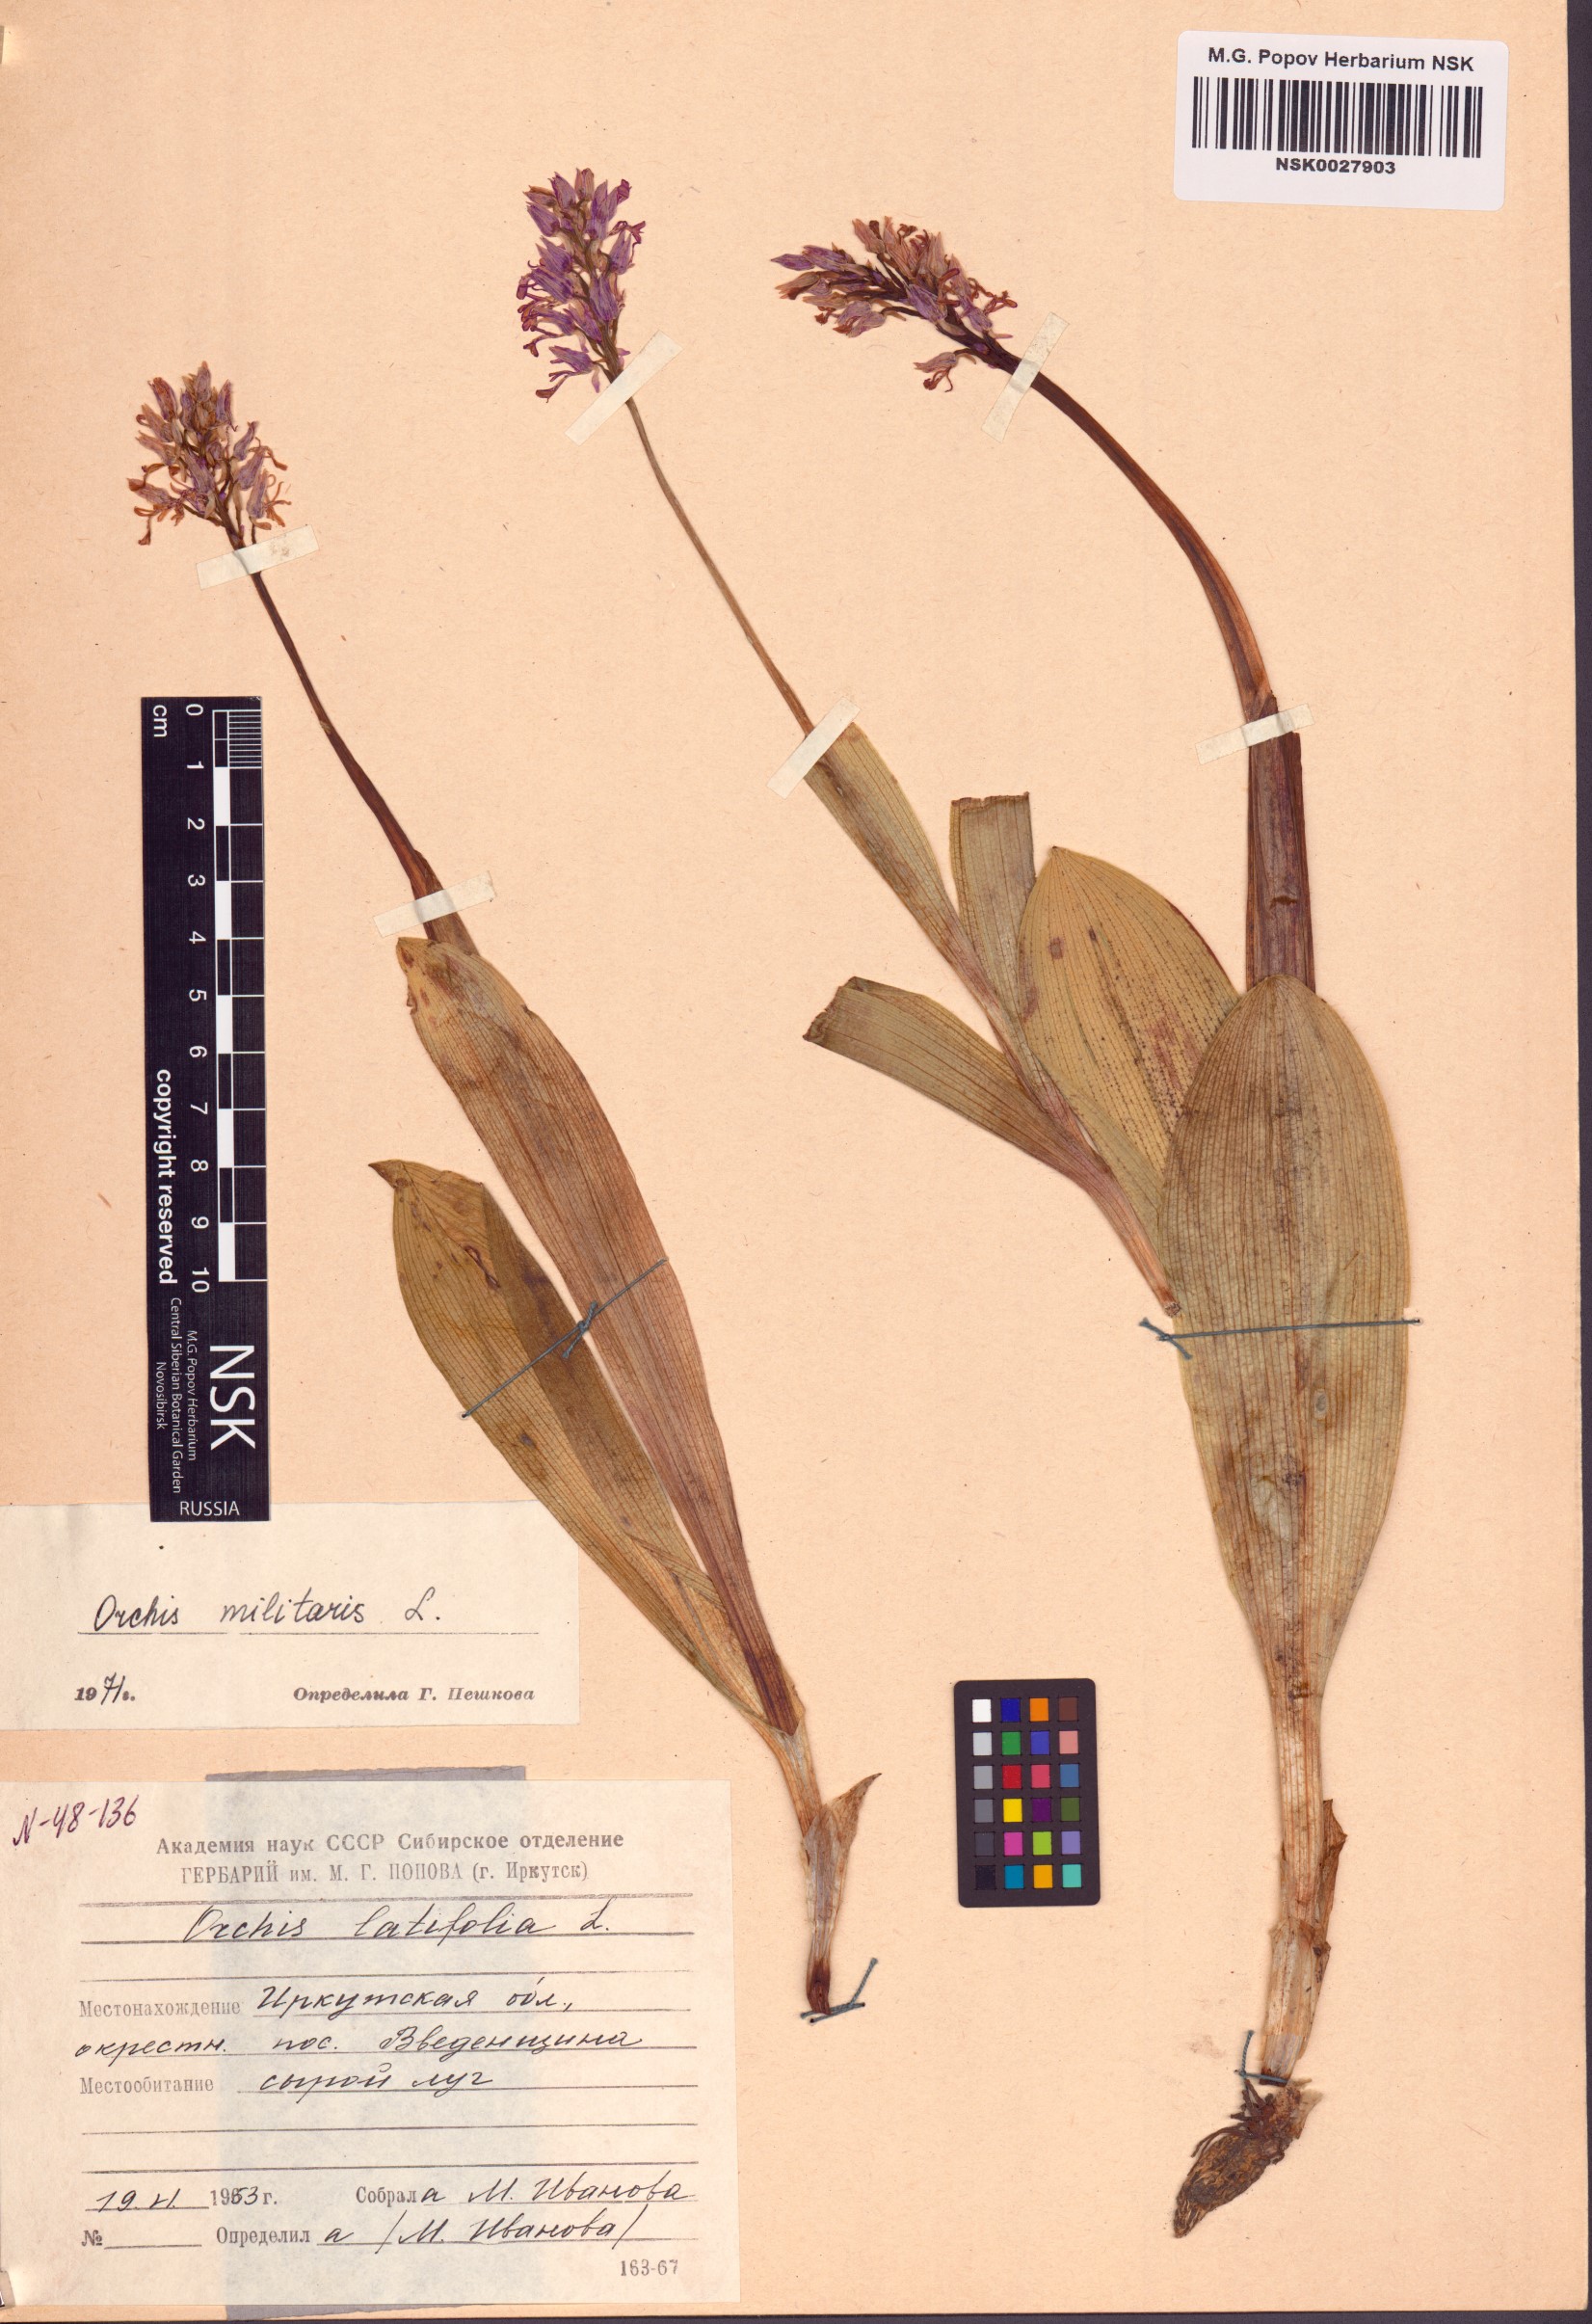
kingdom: Plantae
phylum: Tracheophyta
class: Liliopsida
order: Asparagales
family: Orchidaceae
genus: Orchis
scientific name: Orchis militaris
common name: Military orchid
